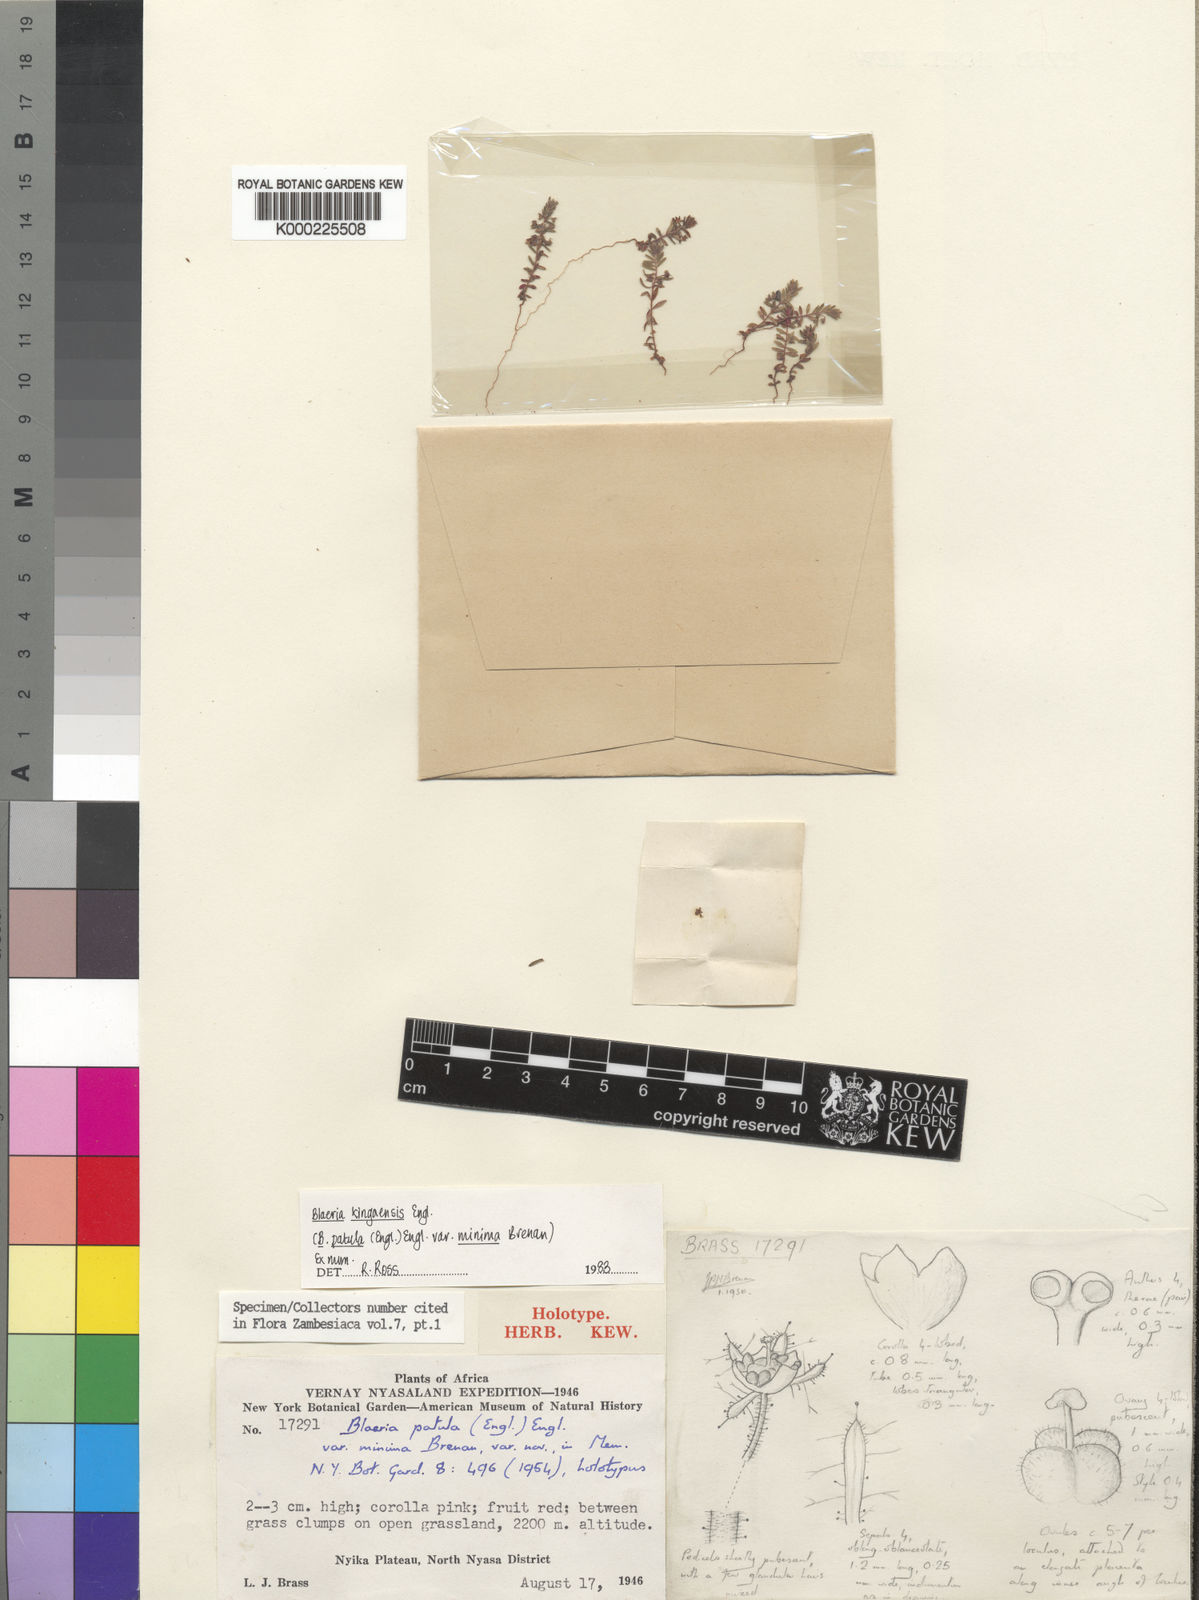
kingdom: Plantae
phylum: Tracheophyta
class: Magnoliopsida
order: Ericales
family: Ericaceae
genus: Erica
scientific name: Erica silvatica
